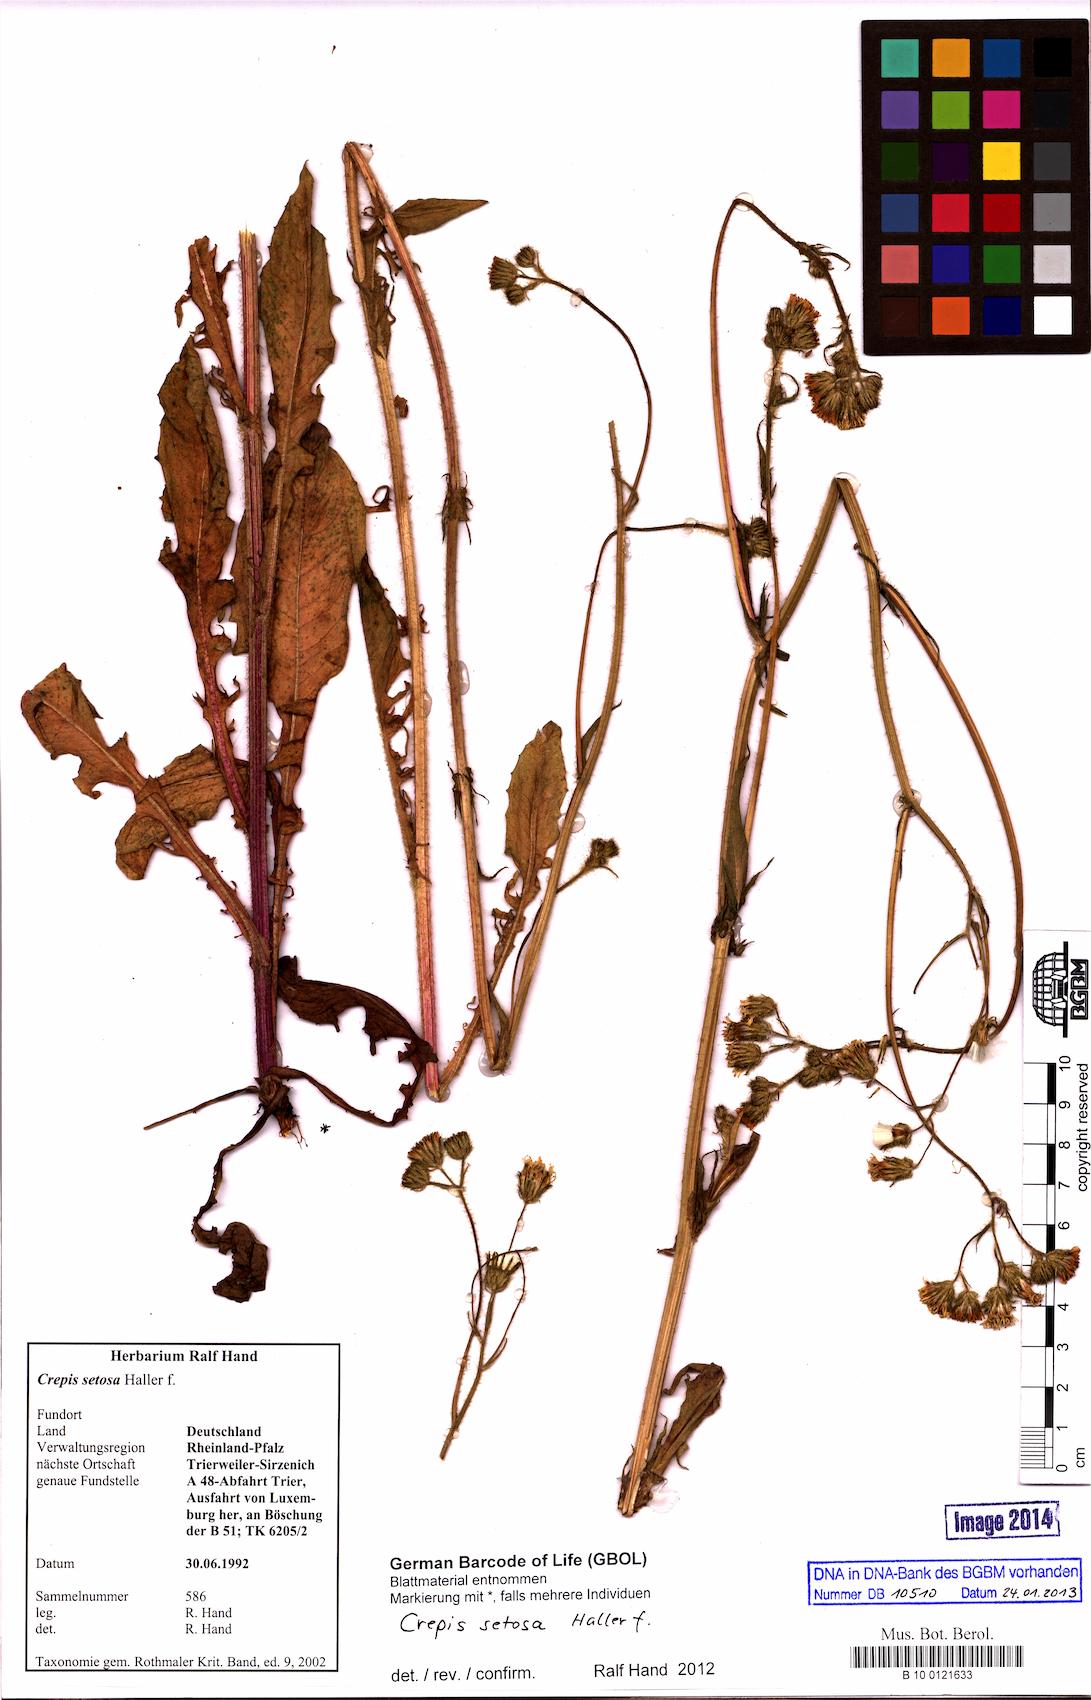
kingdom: Plantae
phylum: Tracheophyta
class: Magnoliopsida
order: Asterales
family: Asteraceae
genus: Crepis
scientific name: Crepis setosa
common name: Bristly hawk's-beard
